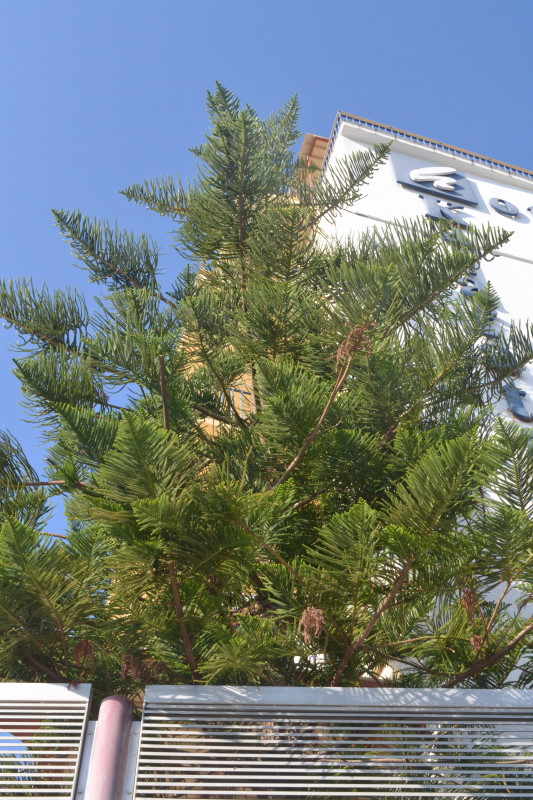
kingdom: Plantae
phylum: Tracheophyta
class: Pinopsida
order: Pinales
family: Araucariaceae
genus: Araucaria
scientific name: Araucaria
